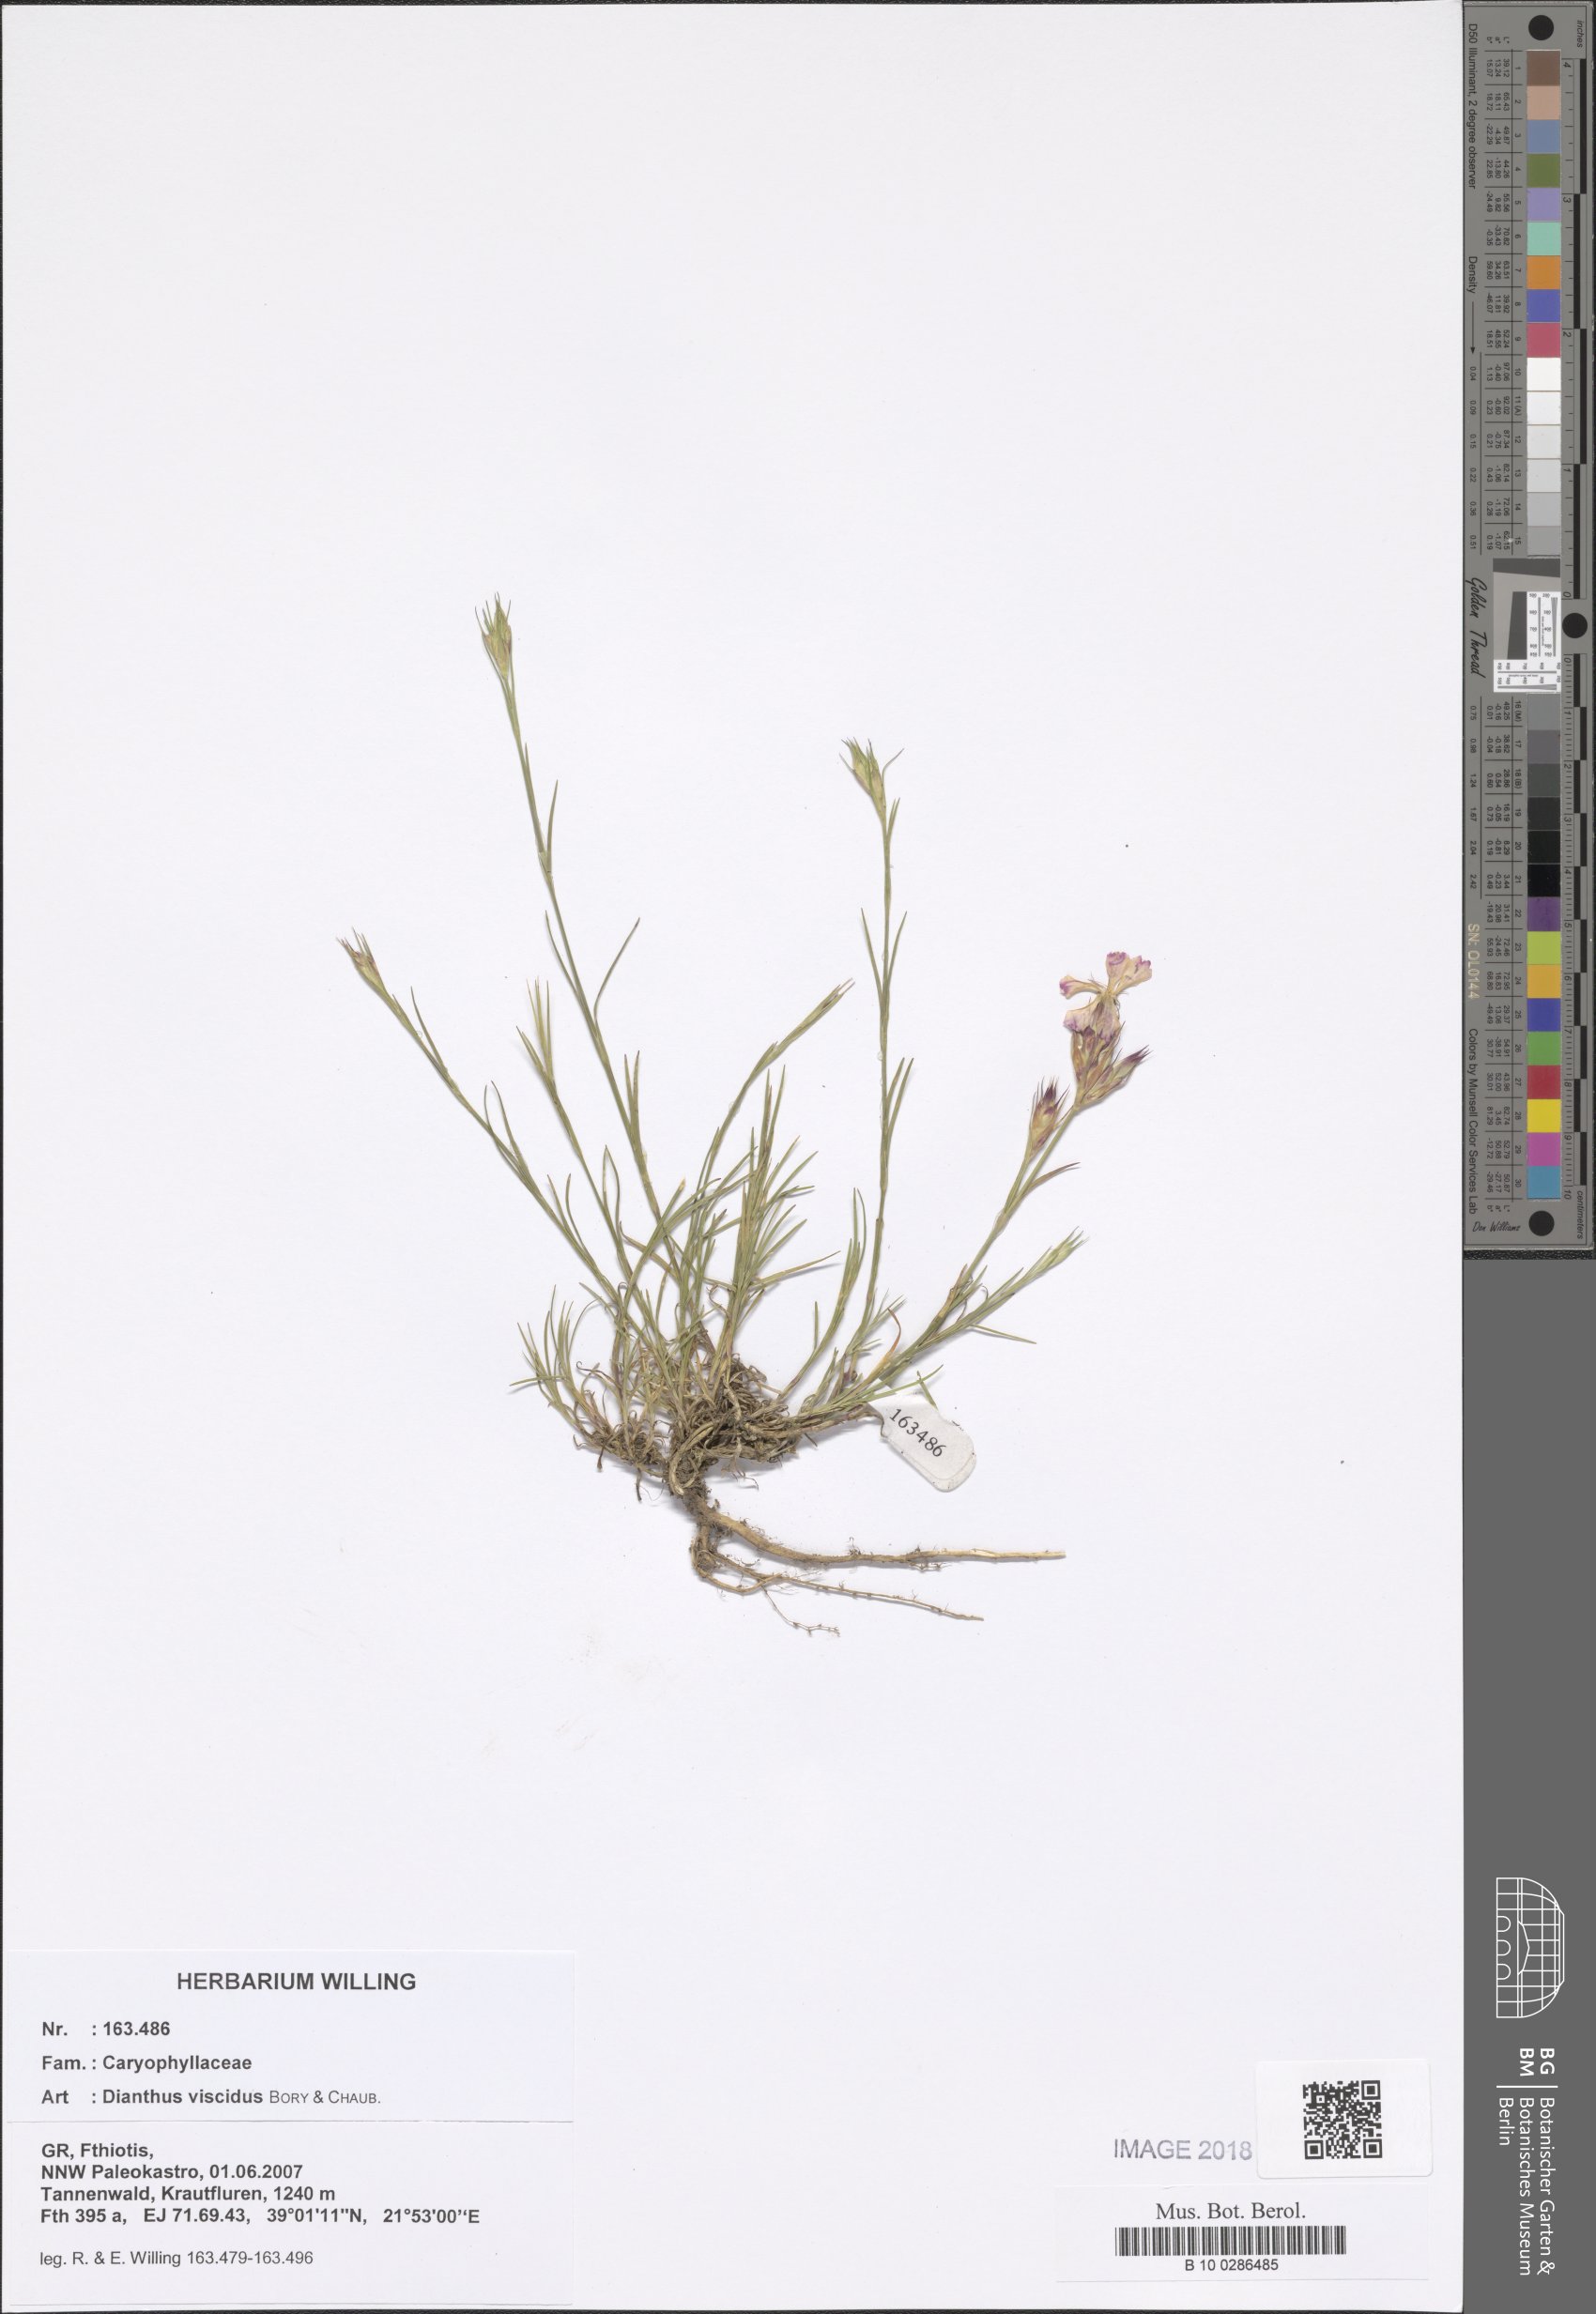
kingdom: Plantae
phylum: Tracheophyta
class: Magnoliopsida
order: Caryophyllales
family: Caryophyllaceae
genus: Dianthus
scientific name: Dianthus viscidus
